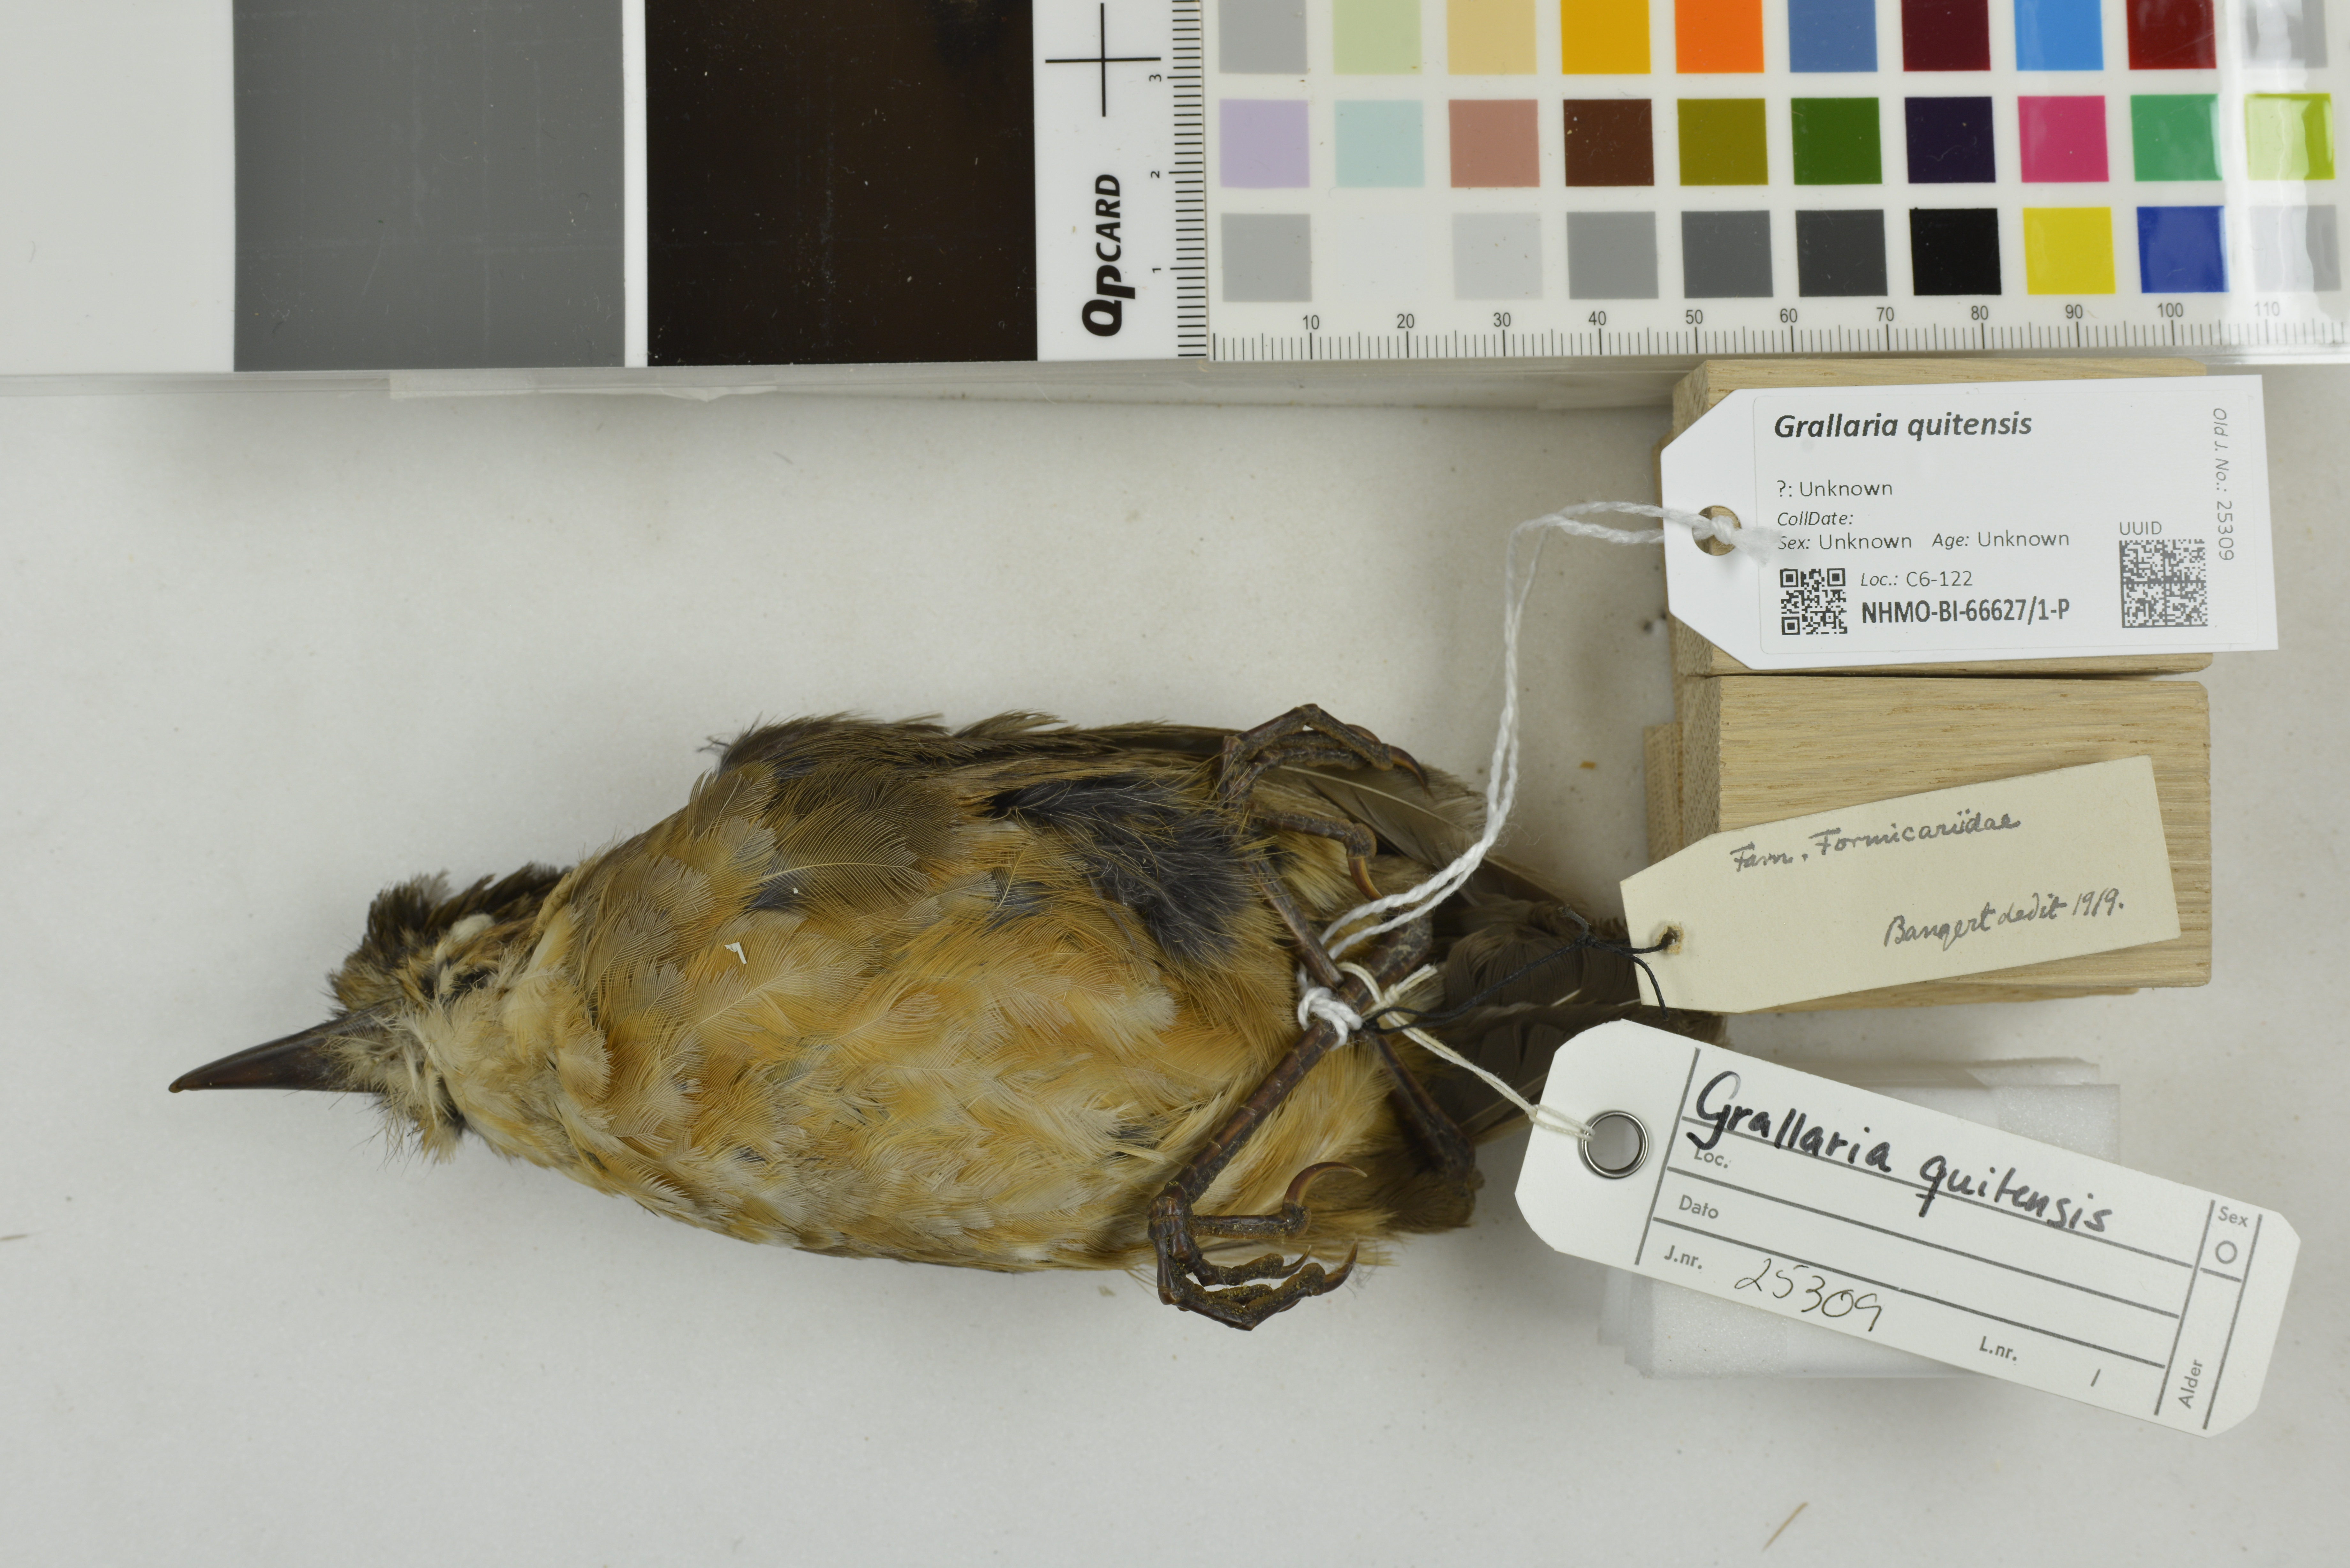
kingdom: Animalia
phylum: Chordata
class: Aves
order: Passeriformes
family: Grallariidae
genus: Grallaria
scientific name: Grallaria quitensis
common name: Tawny antpitta
